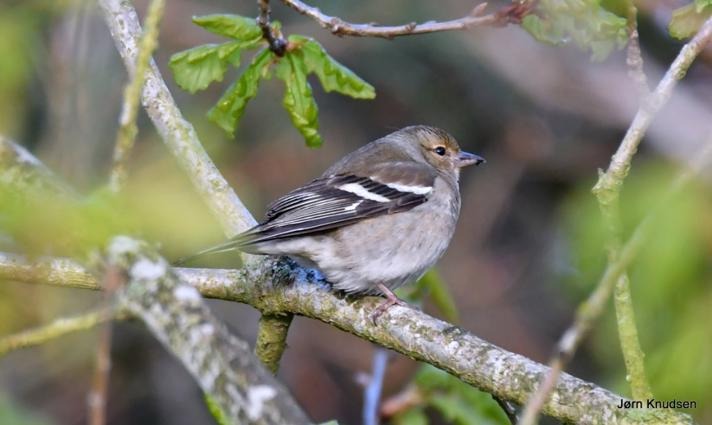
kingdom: Animalia
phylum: Chordata
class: Aves
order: Passeriformes
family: Fringillidae
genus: Fringilla
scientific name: Fringilla coelebs
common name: Bogfinke
